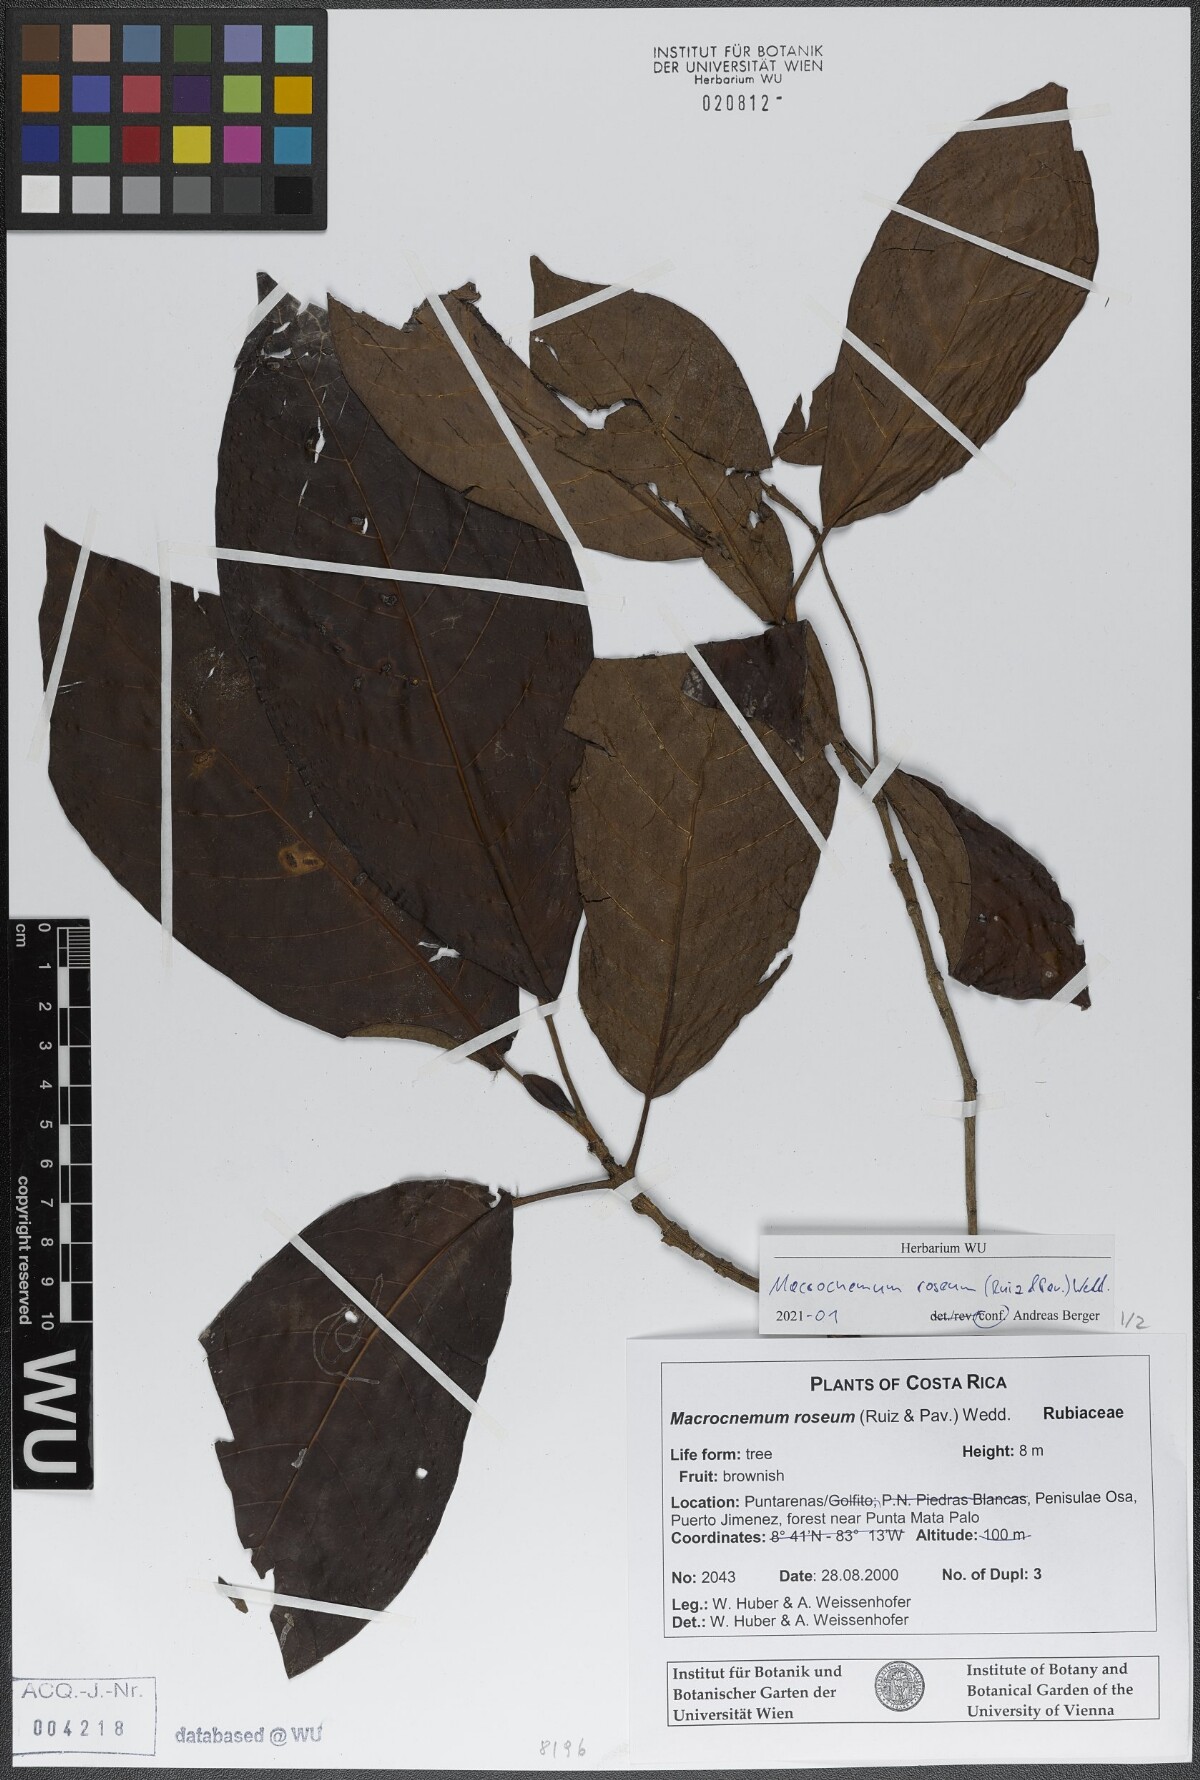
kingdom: Plantae
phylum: Tracheophyta
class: Magnoliopsida
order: Gentianales
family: Rubiaceae
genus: Macrocnemum
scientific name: Macrocnemum roseum
